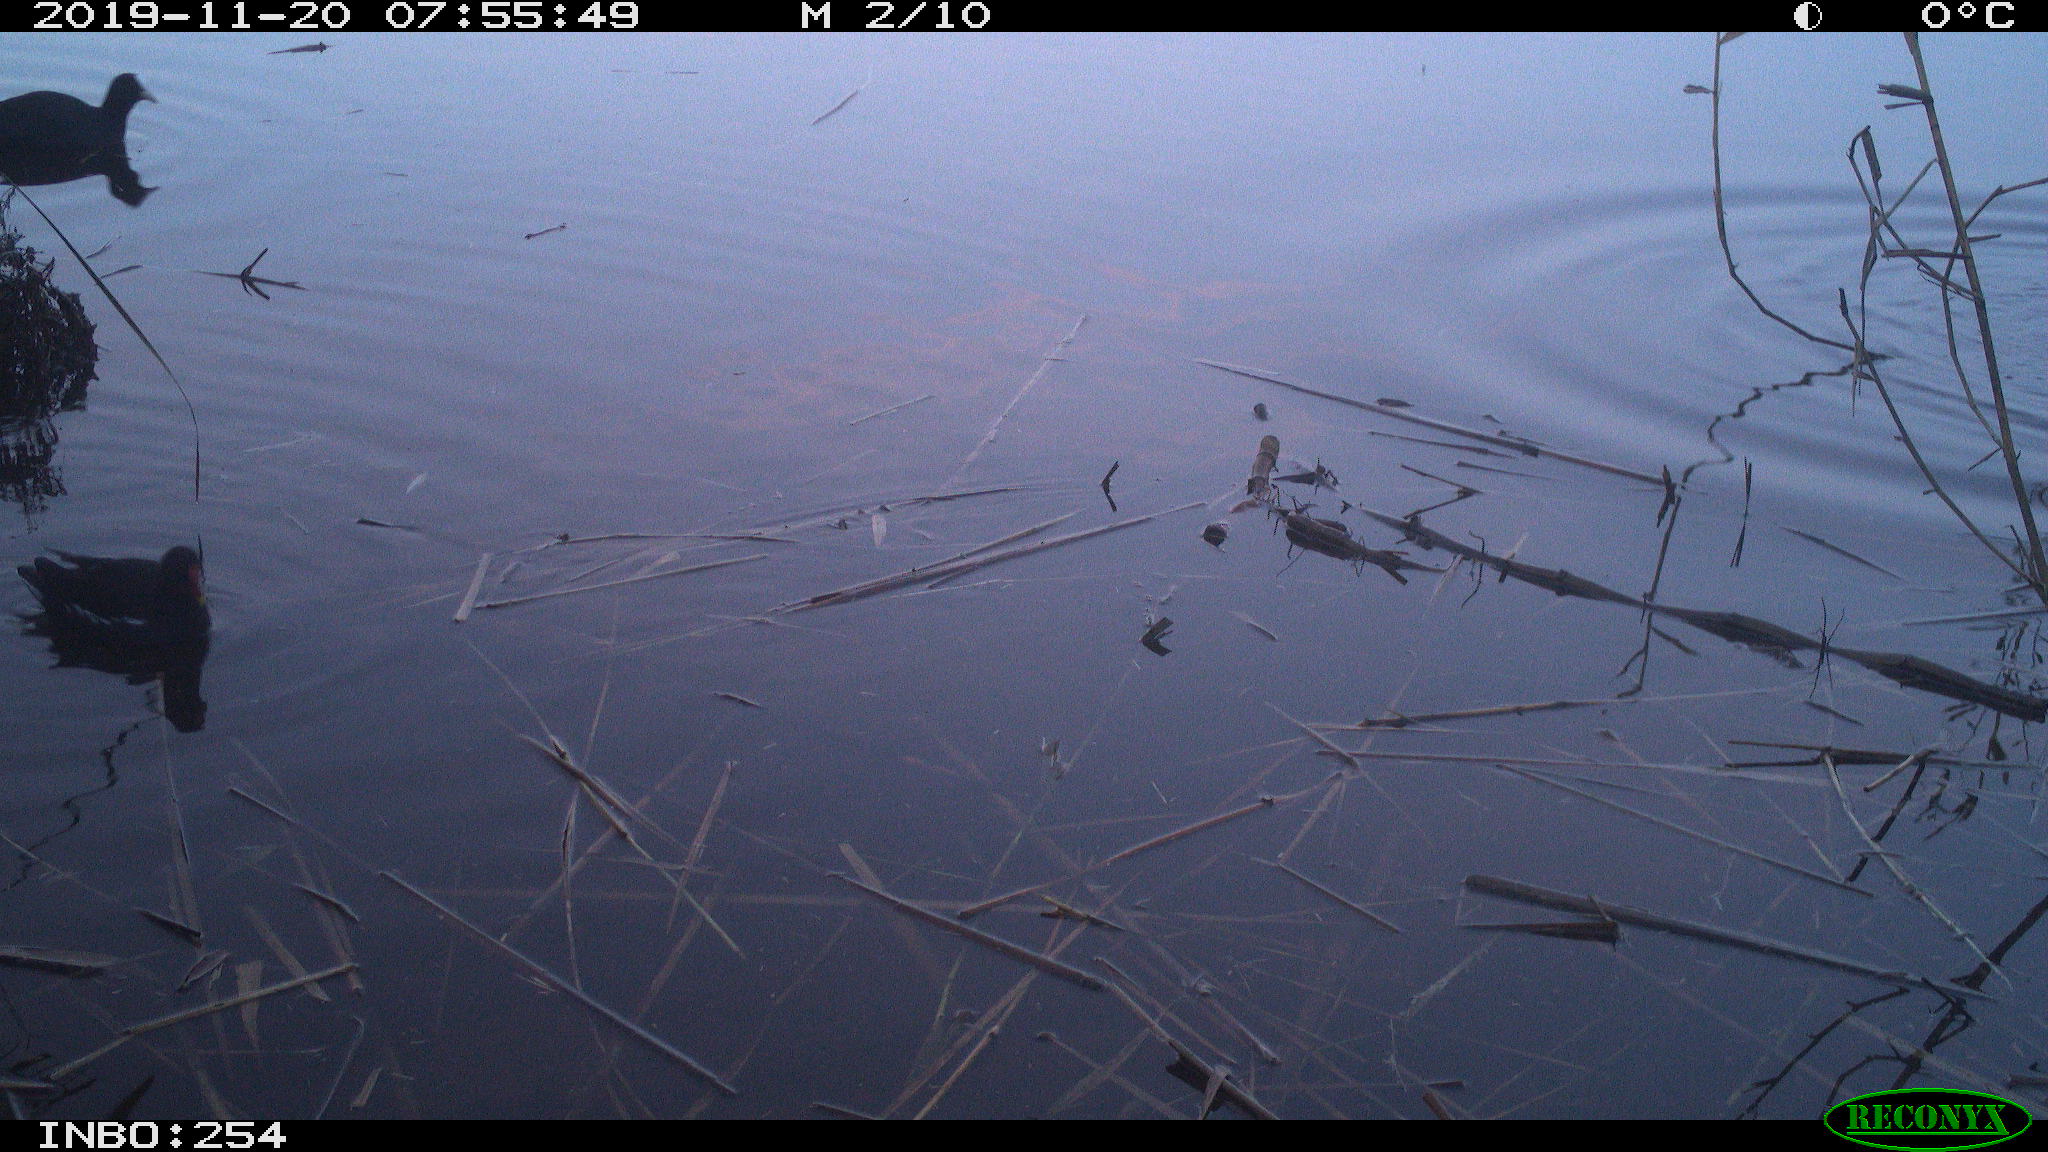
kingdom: Animalia
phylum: Chordata
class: Aves
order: Gruiformes
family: Rallidae
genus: Gallinula
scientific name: Gallinula chloropus
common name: Common moorhen
